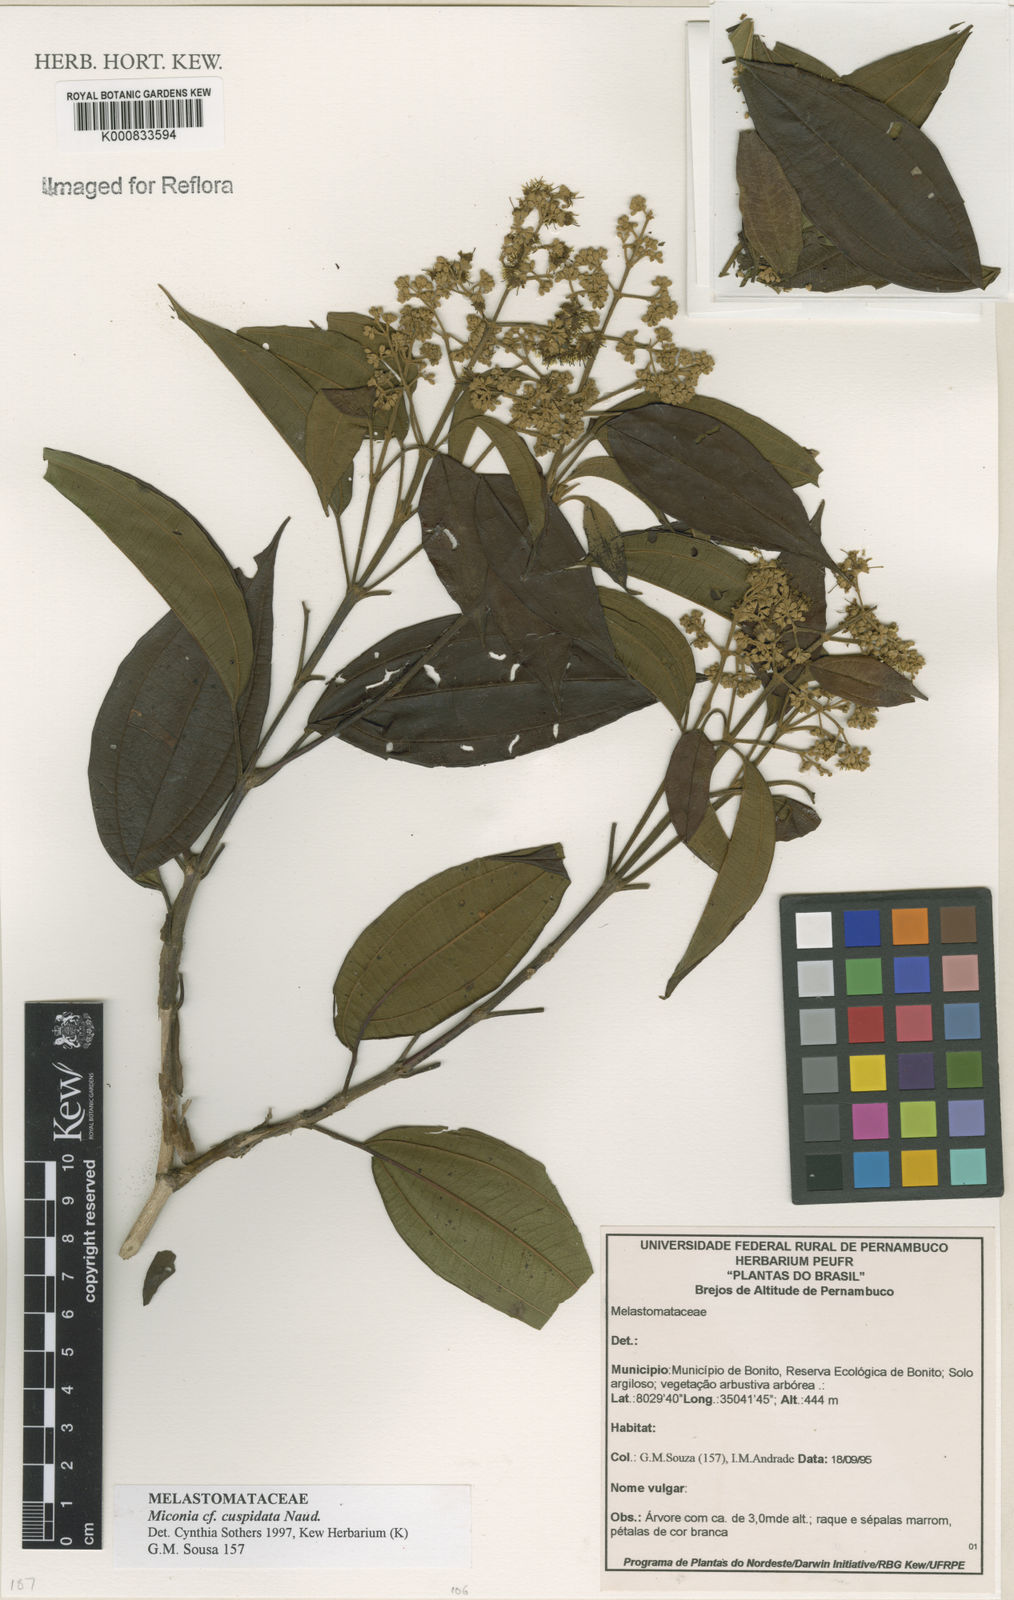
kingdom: Plantae
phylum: Tracheophyta
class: Magnoliopsida
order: Myrtales
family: Melastomataceae
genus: Miconia
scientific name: Miconia nordestina
